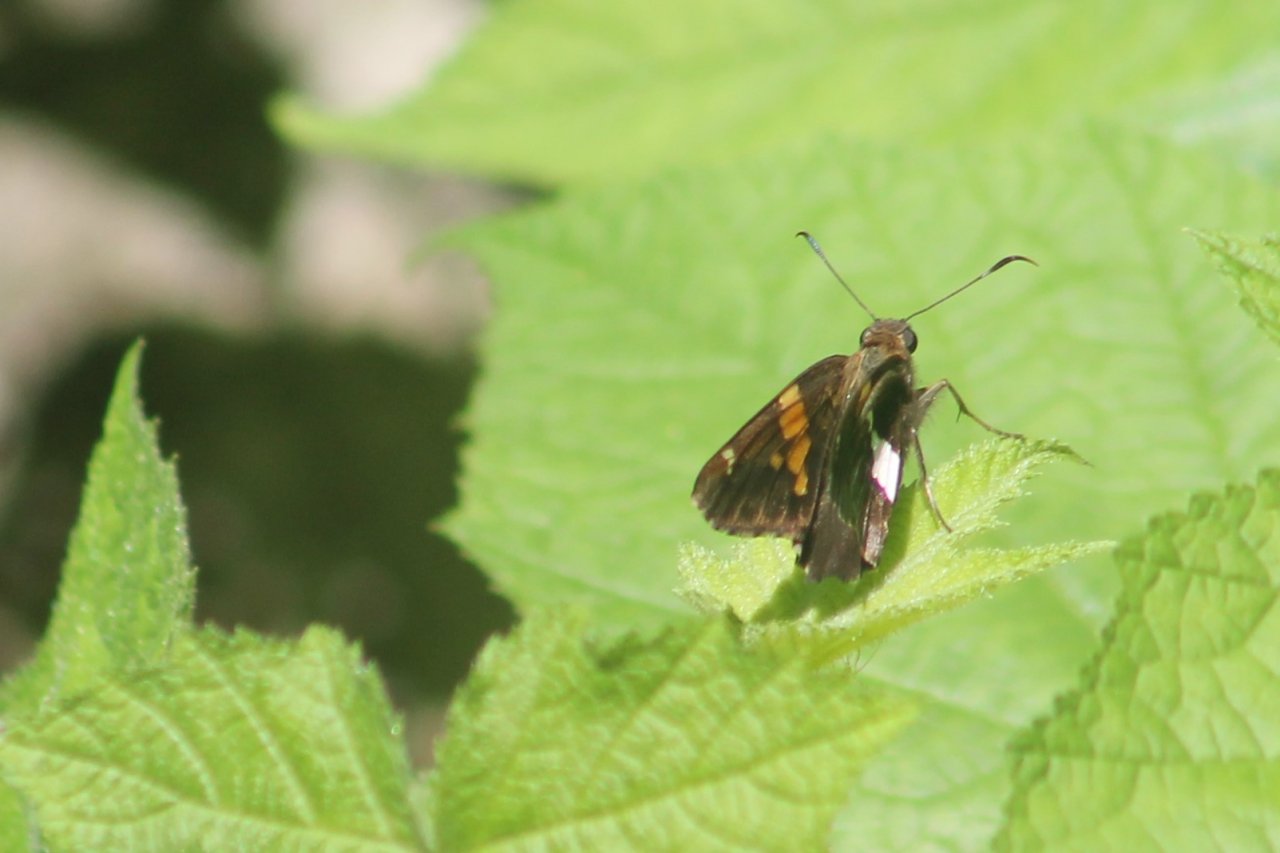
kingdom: Animalia
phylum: Arthropoda
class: Insecta
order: Lepidoptera
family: Hesperiidae
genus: Epargyreus
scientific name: Epargyreus clarus
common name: Silver-spotted Skipper
